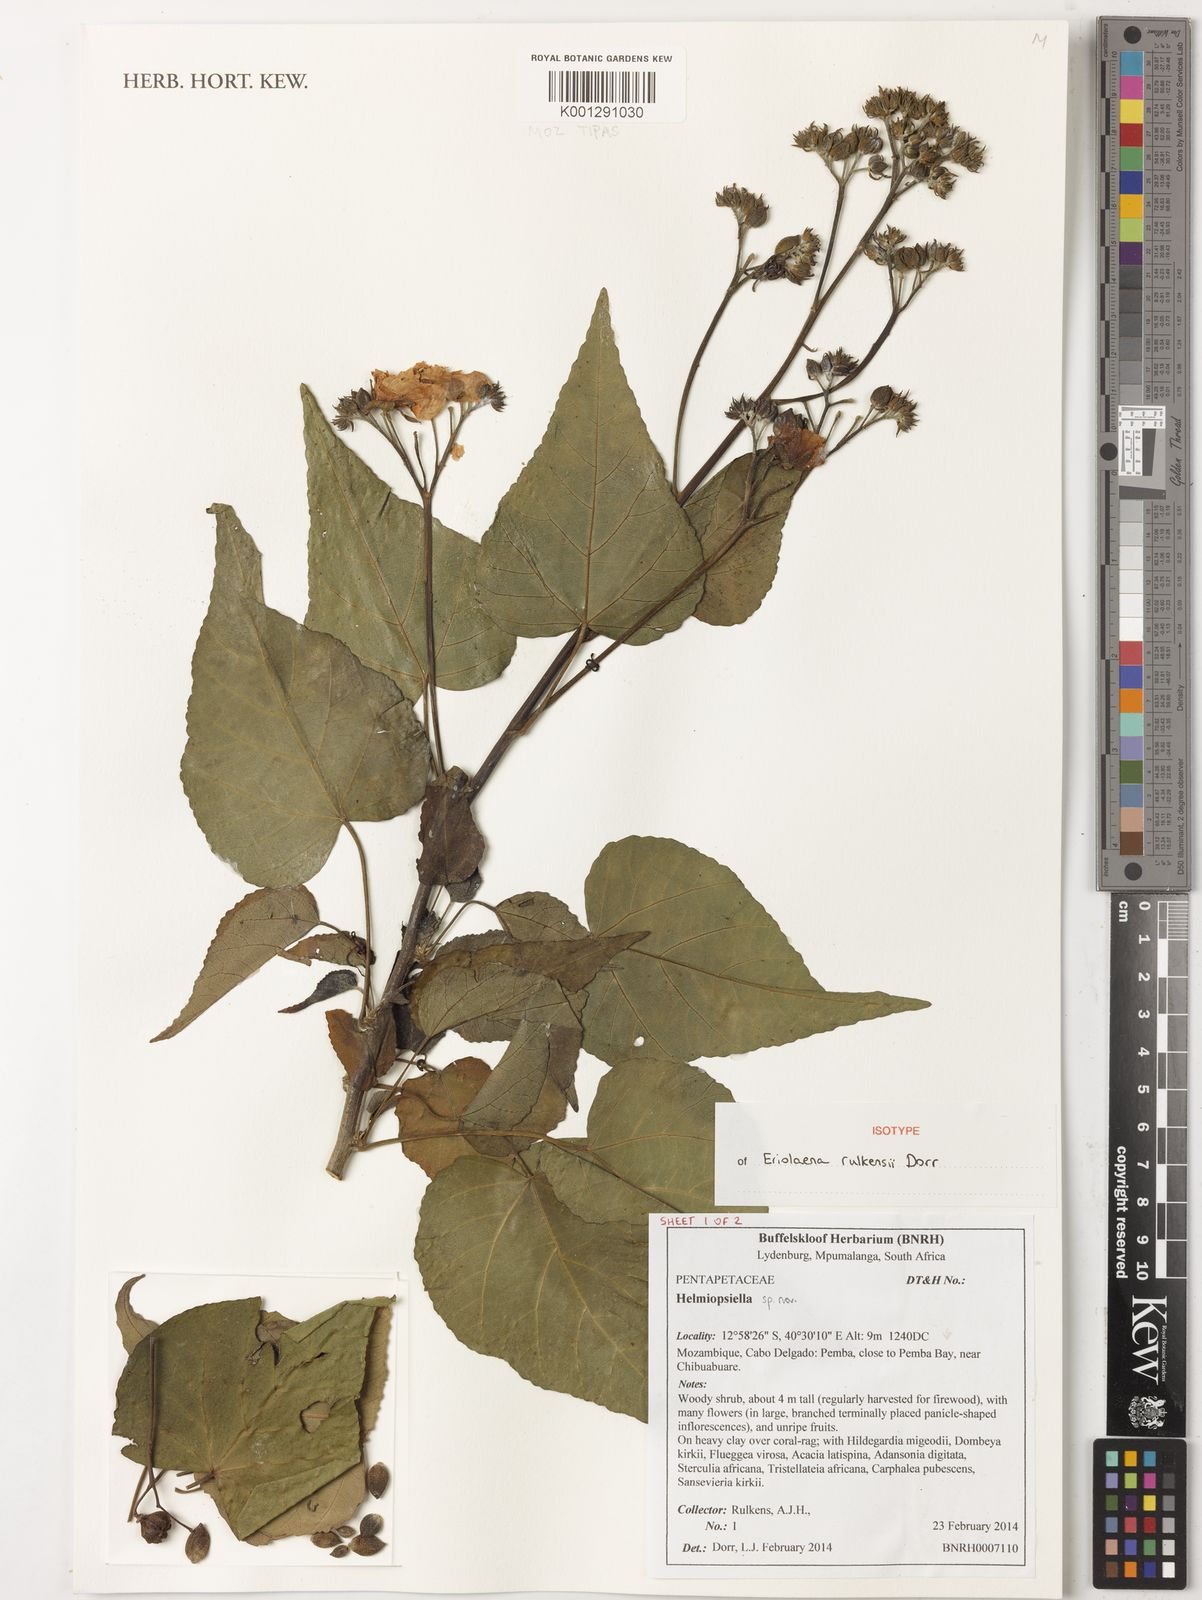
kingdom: Plantae
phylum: Tracheophyta
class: Magnoliopsida
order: Malvales
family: Malvaceae
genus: Eriolaena
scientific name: Eriolaena rulkensii
